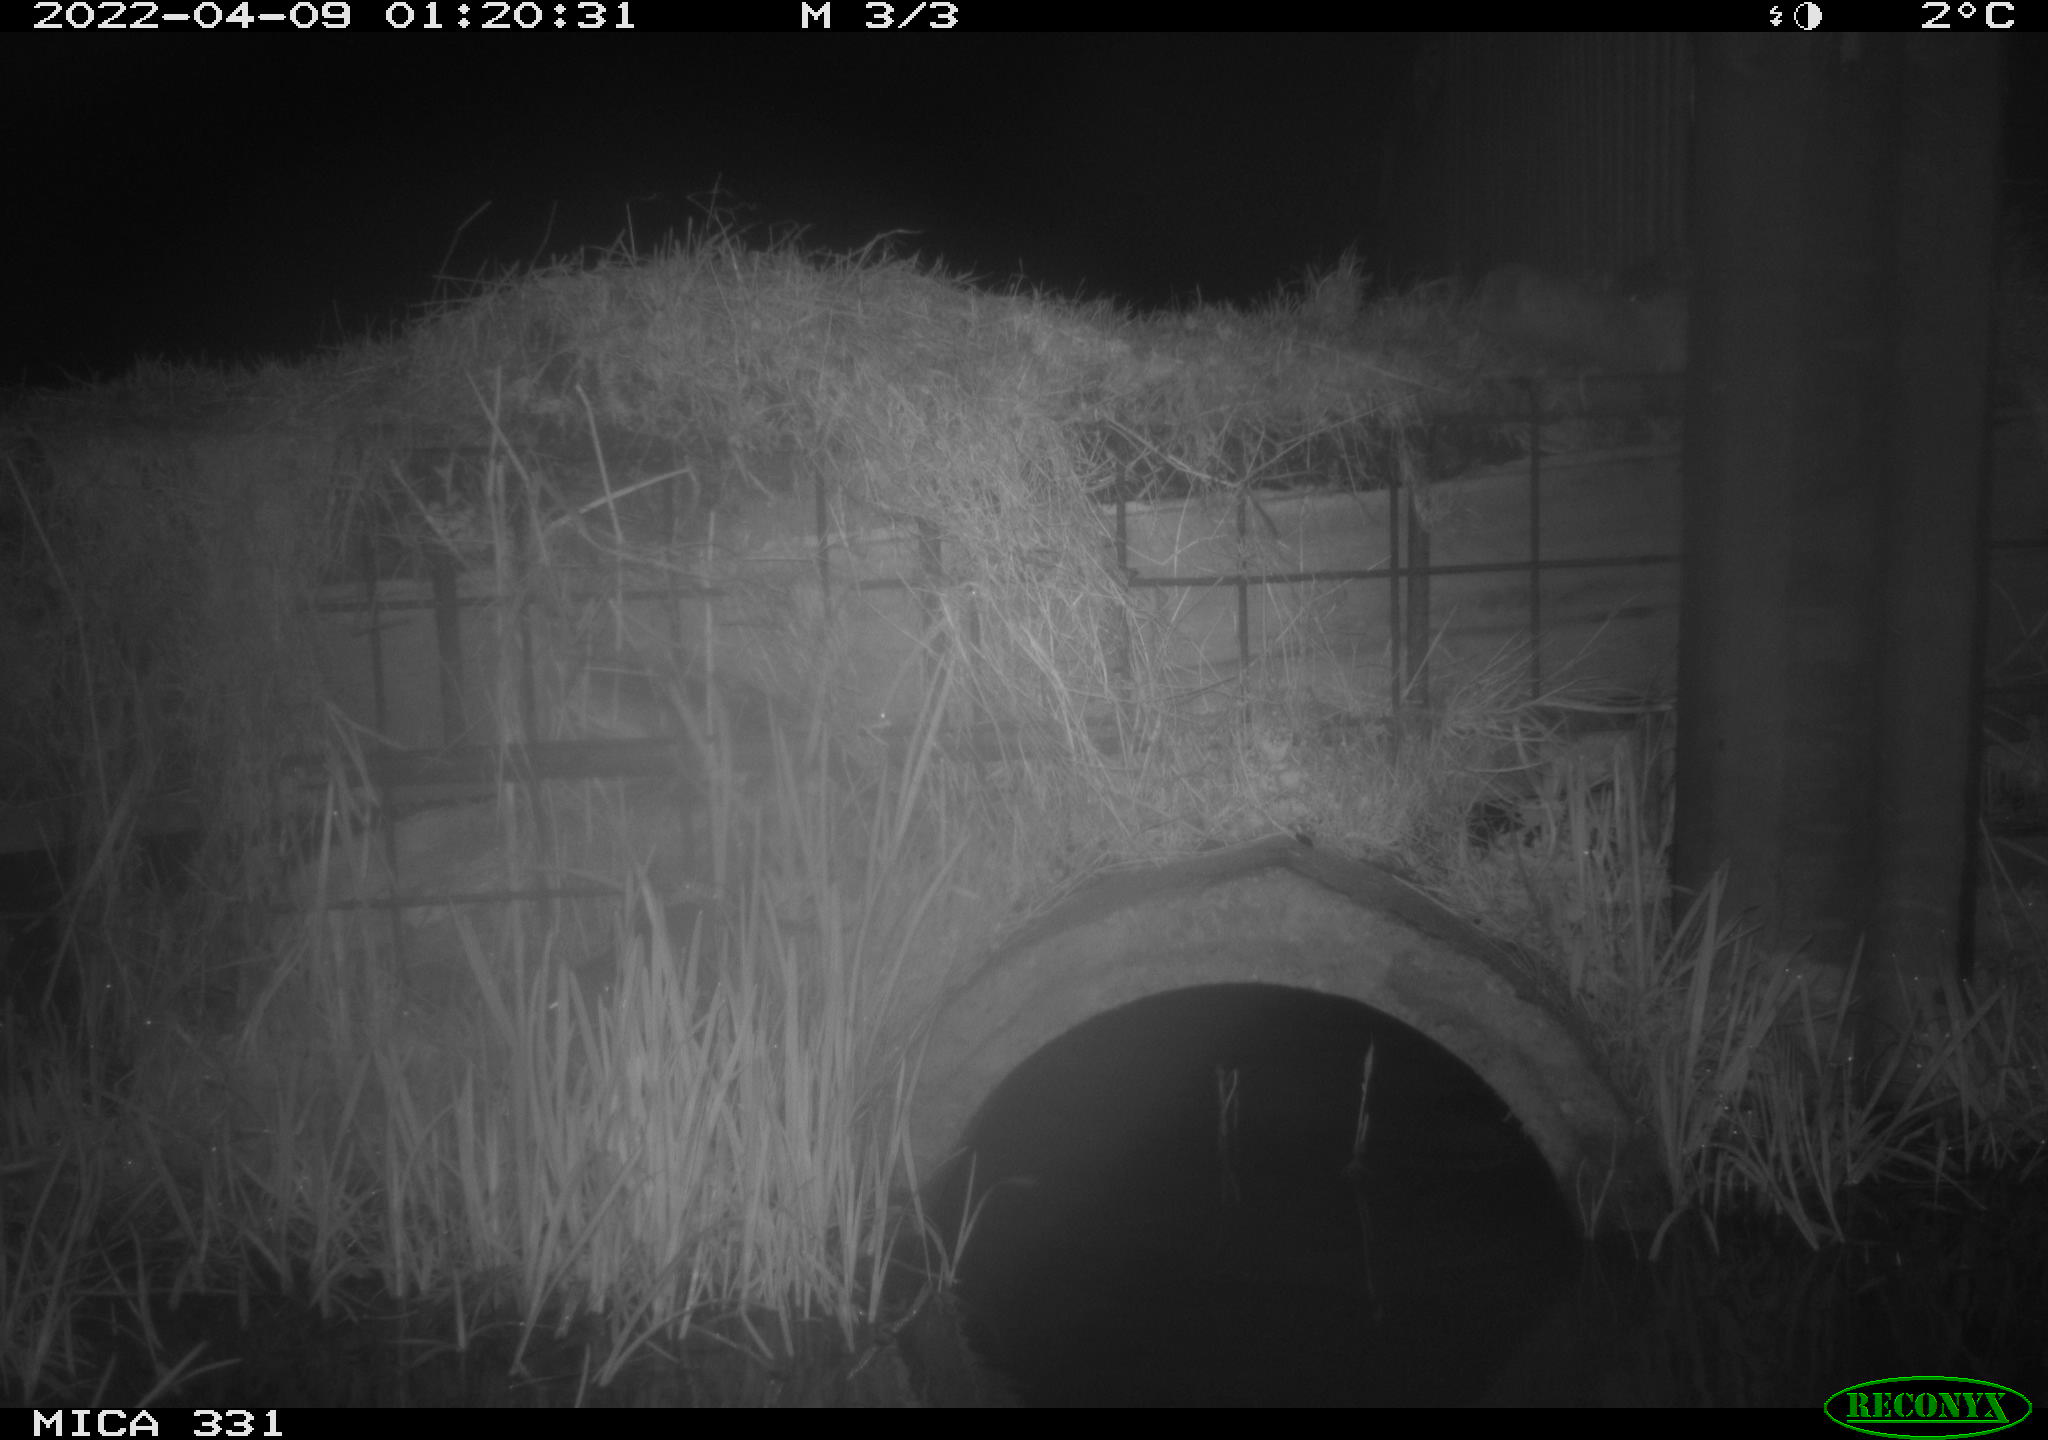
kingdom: Animalia
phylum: Chordata
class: Mammalia
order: Rodentia
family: Muridae
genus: Rattus
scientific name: Rattus norvegicus
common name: Brown rat
